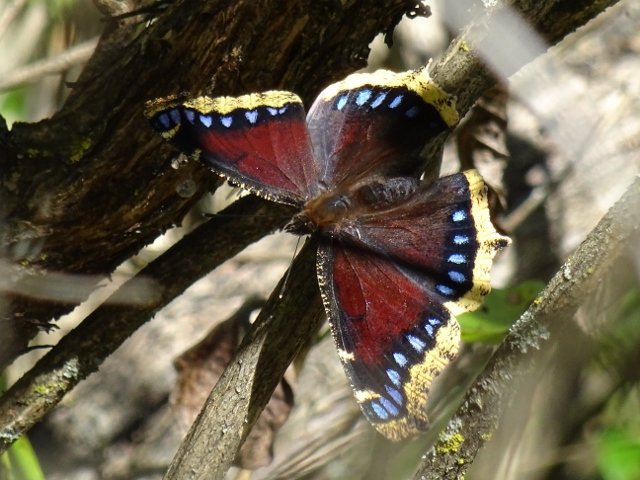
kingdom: Animalia
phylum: Arthropoda
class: Insecta
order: Lepidoptera
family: Nymphalidae
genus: Nymphalis
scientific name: Nymphalis antiopa
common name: Mourning Cloak
